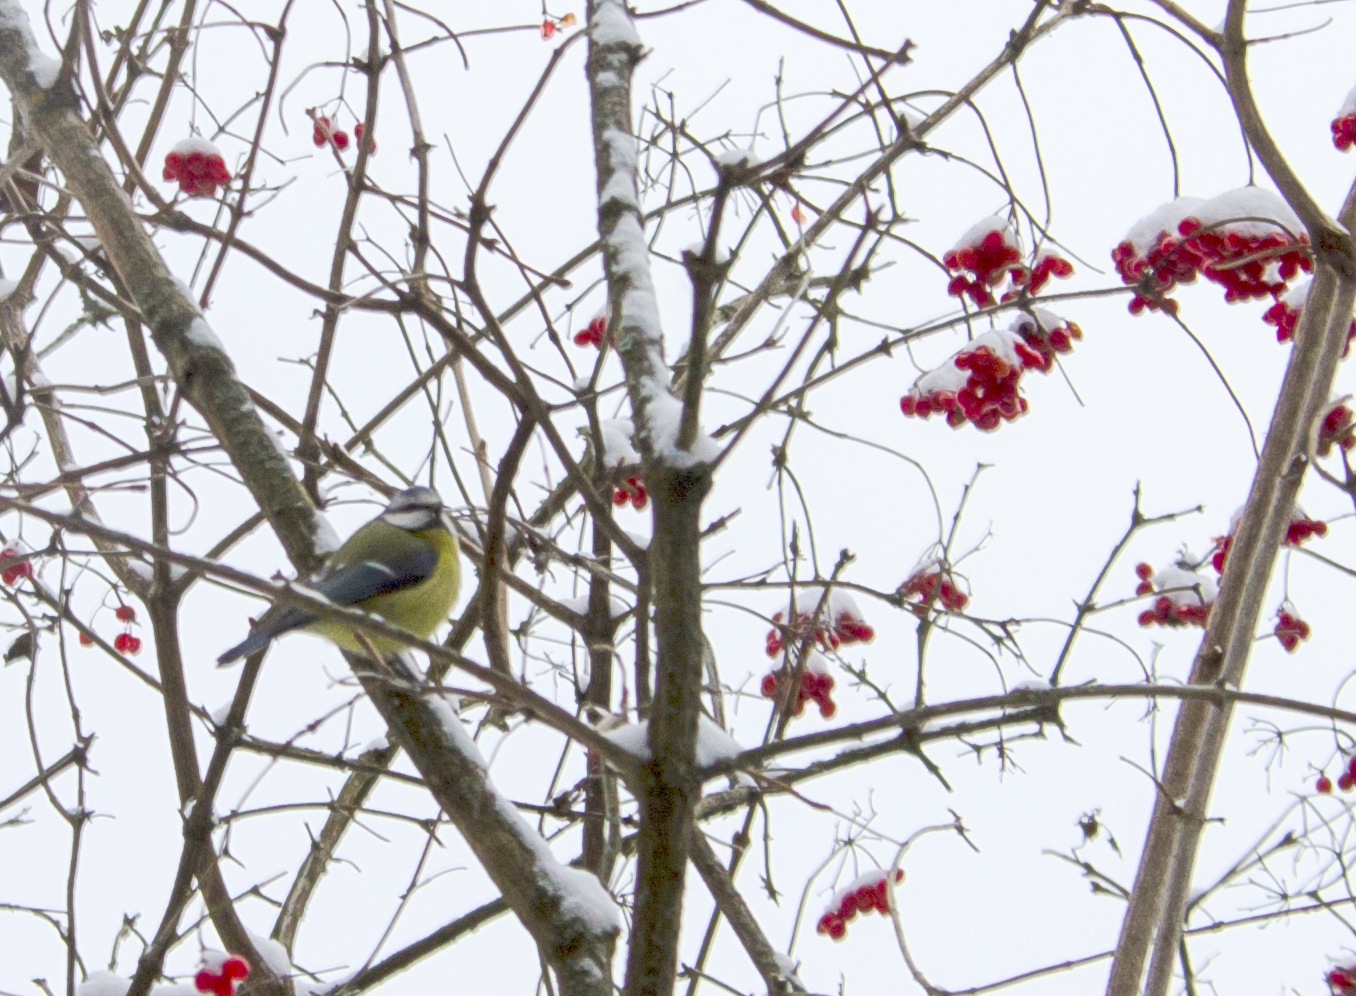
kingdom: Animalia
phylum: Chordata
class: Aves
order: Passeriformes
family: Paridae
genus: Cyanistes
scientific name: Cyanistes caeruleus
